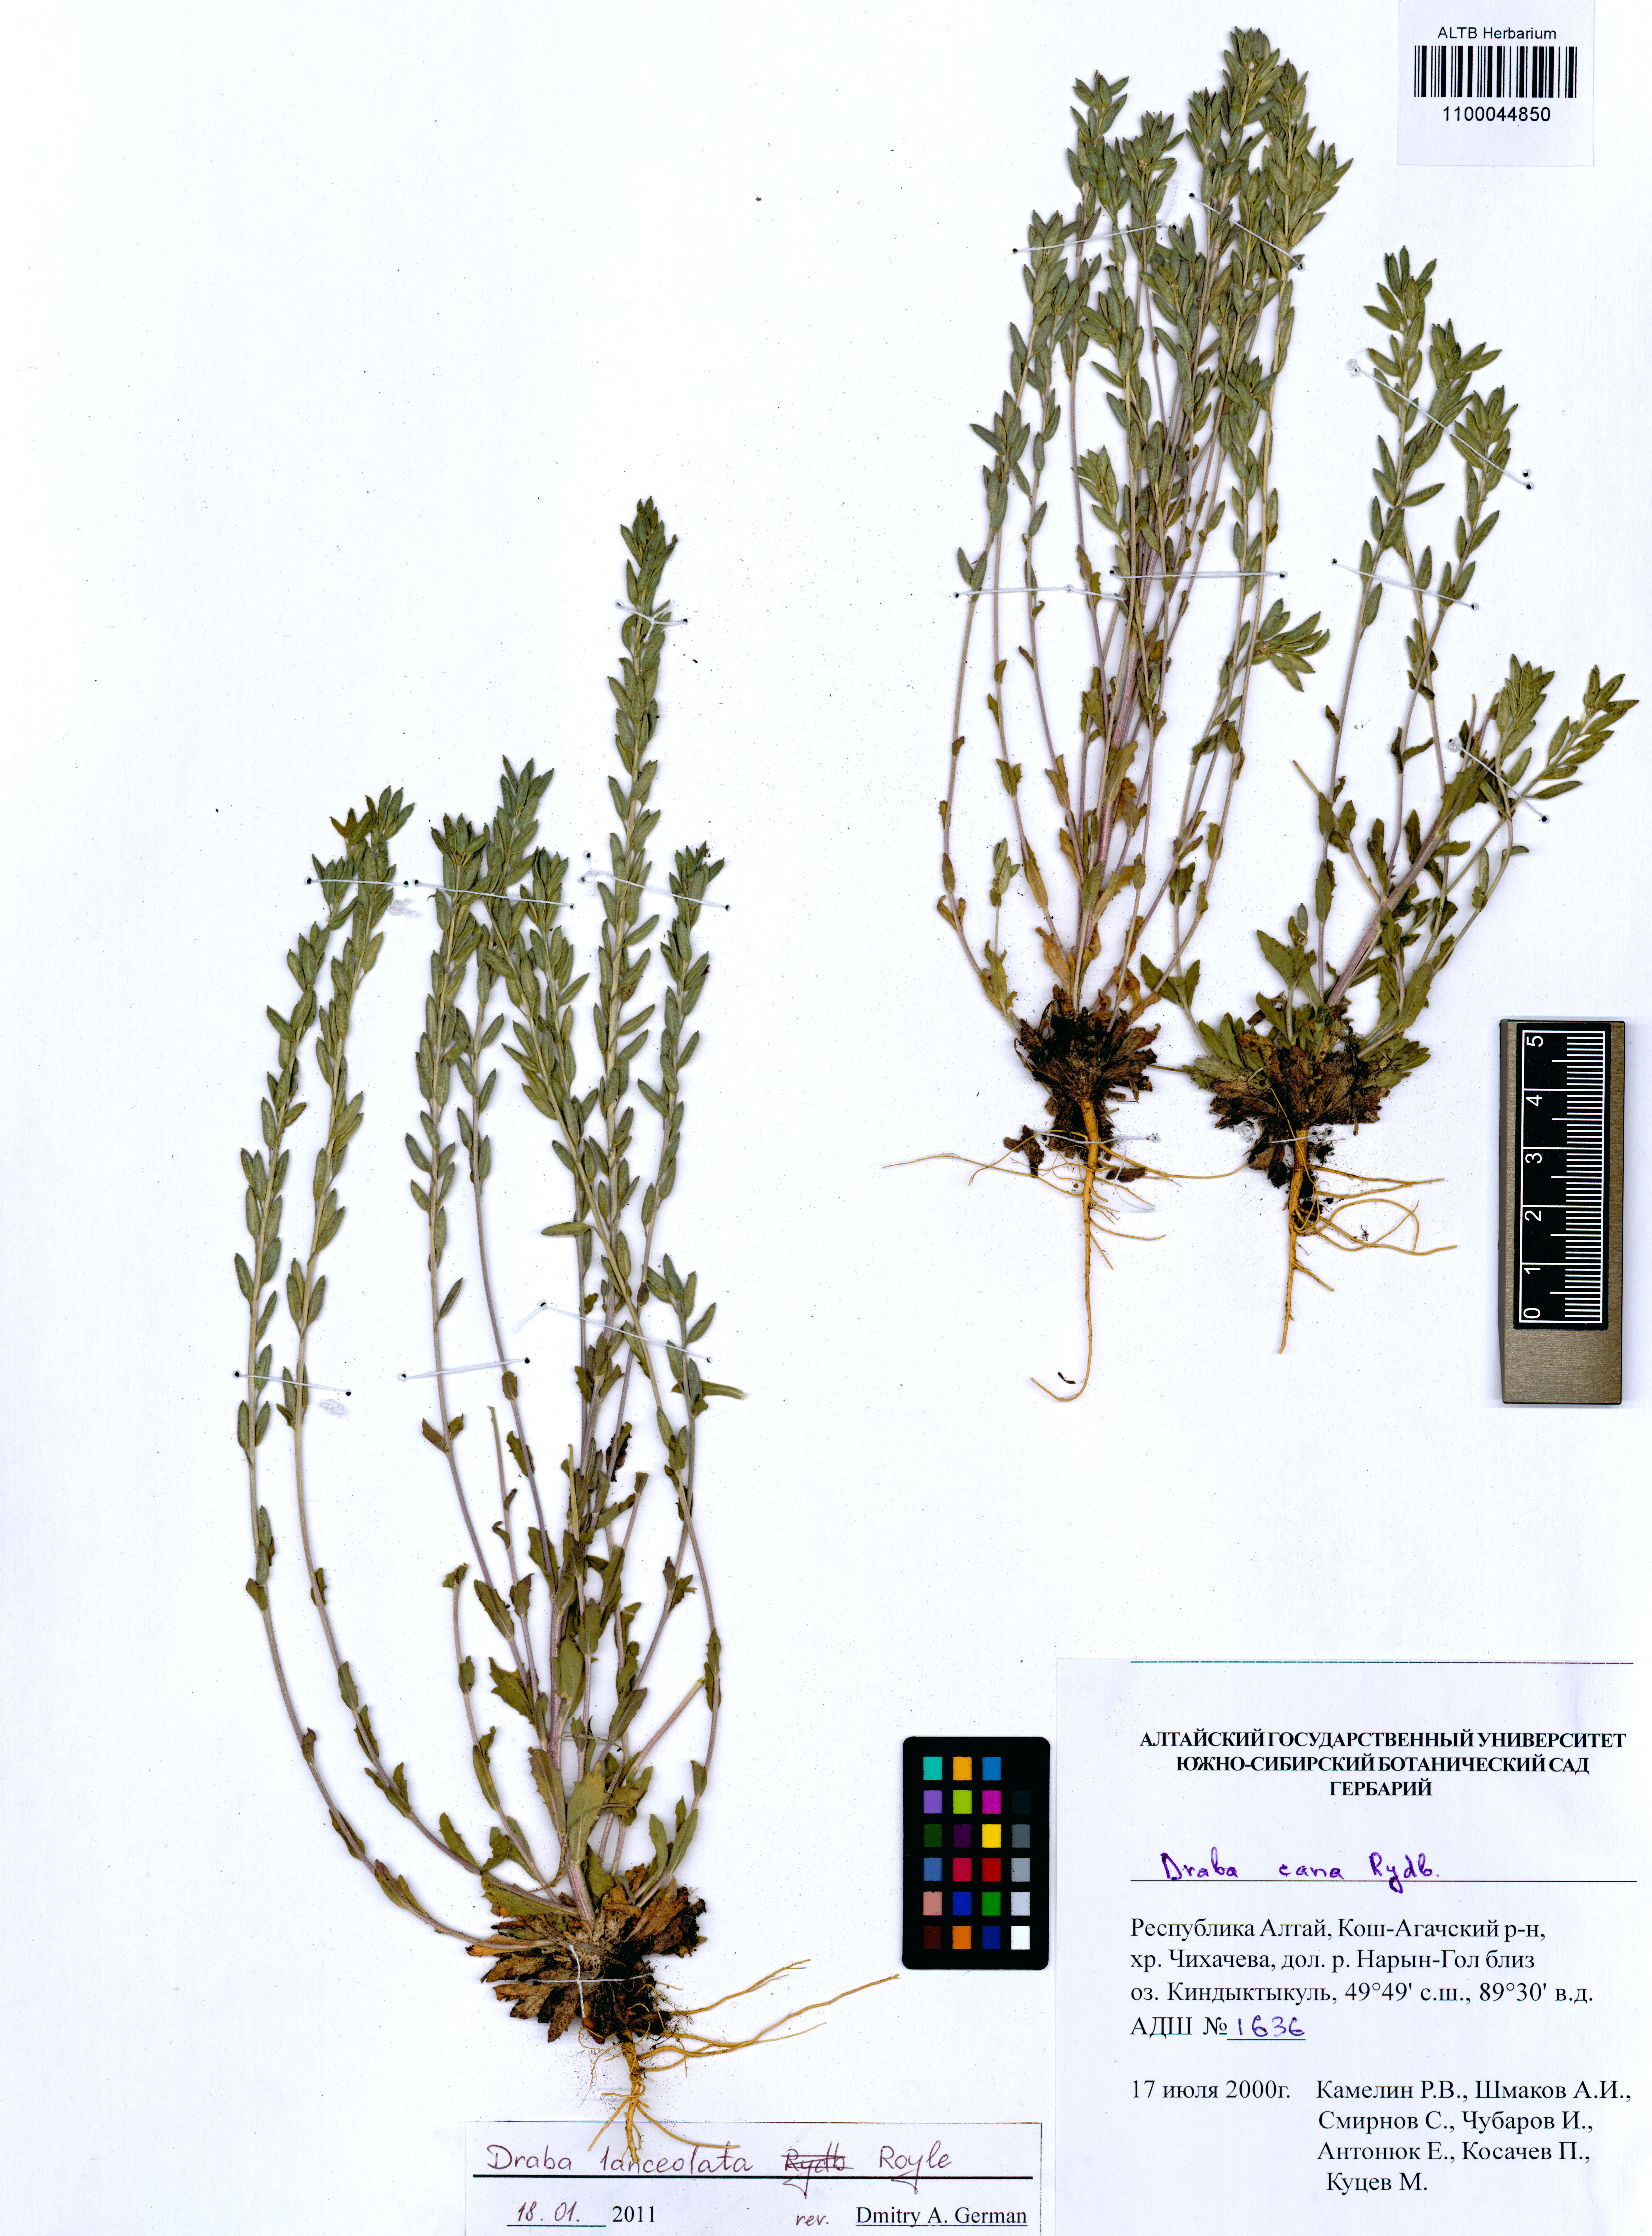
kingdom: Plantae
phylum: Tracheophyta
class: Magnoliopsida
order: Brassicales
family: Brassicaceae
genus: Draba
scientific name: Draba lanceolata
